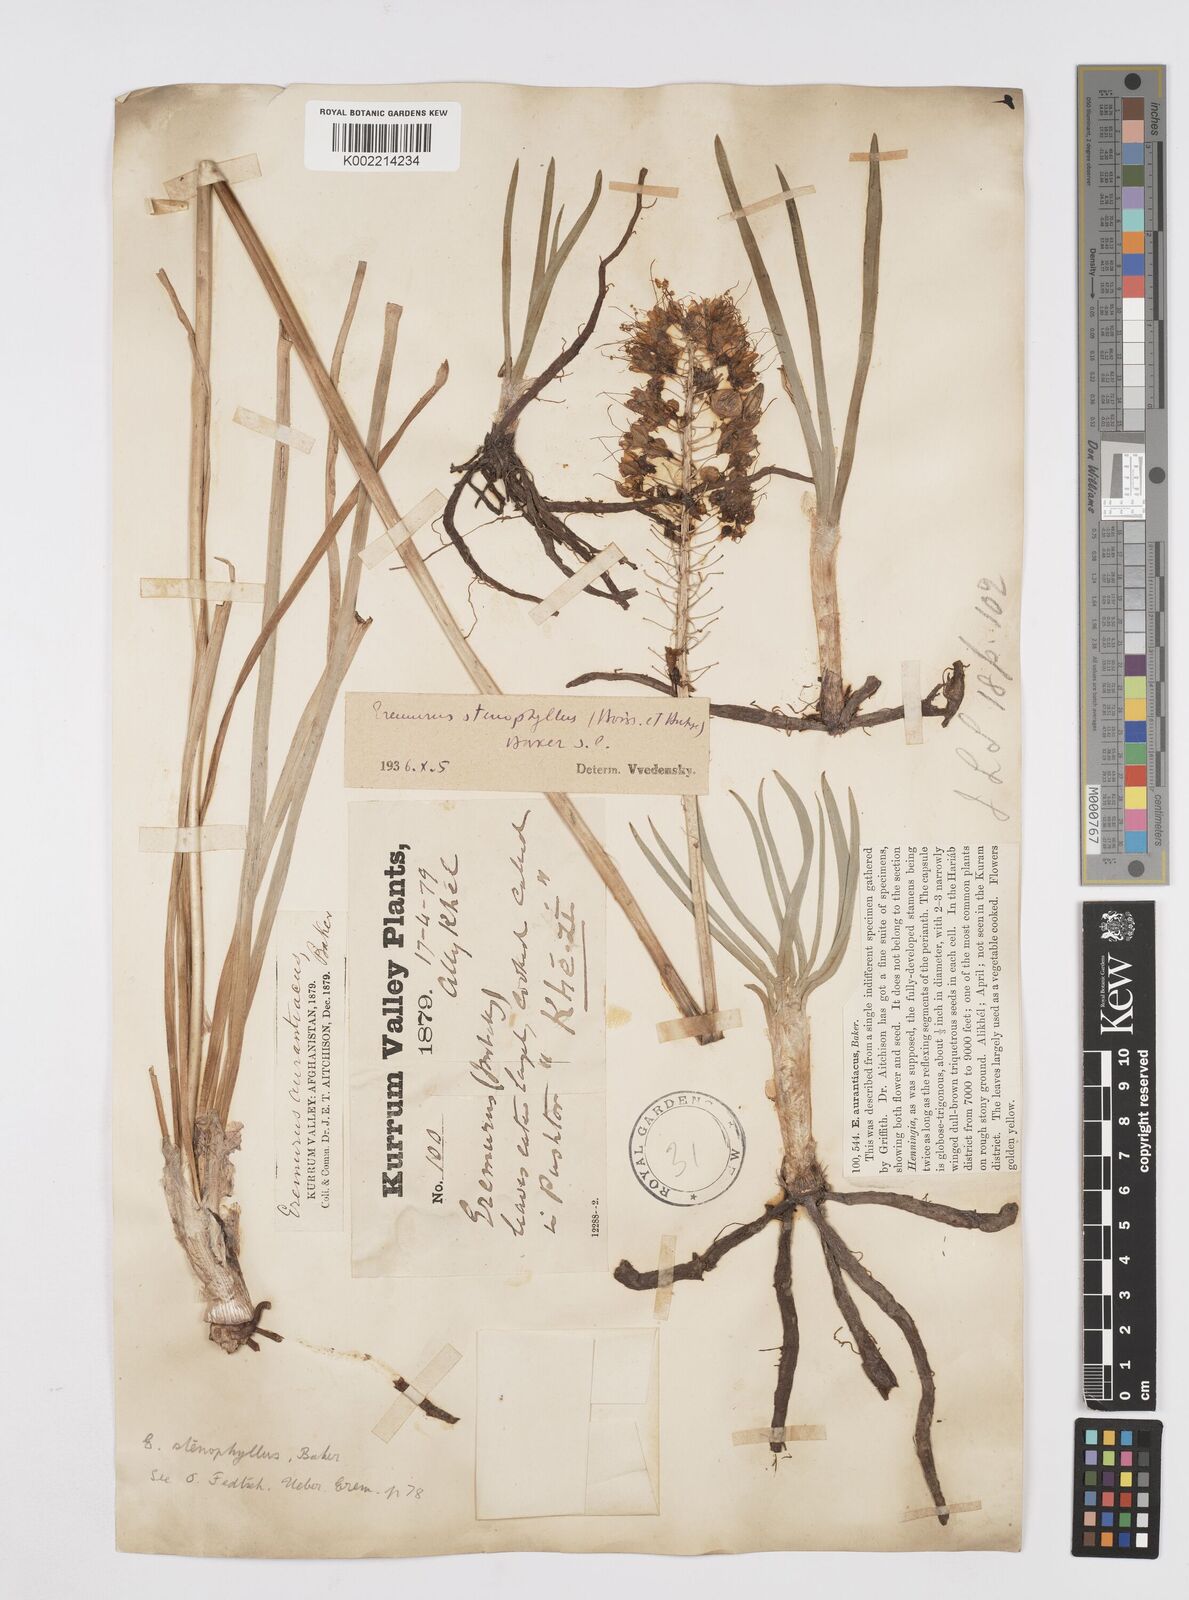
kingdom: Plantae
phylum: Tracheophyta
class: Liliopsida
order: Asparagales
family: Asphodelaceae
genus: Eremurus
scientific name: Eremurus stenophyllus
